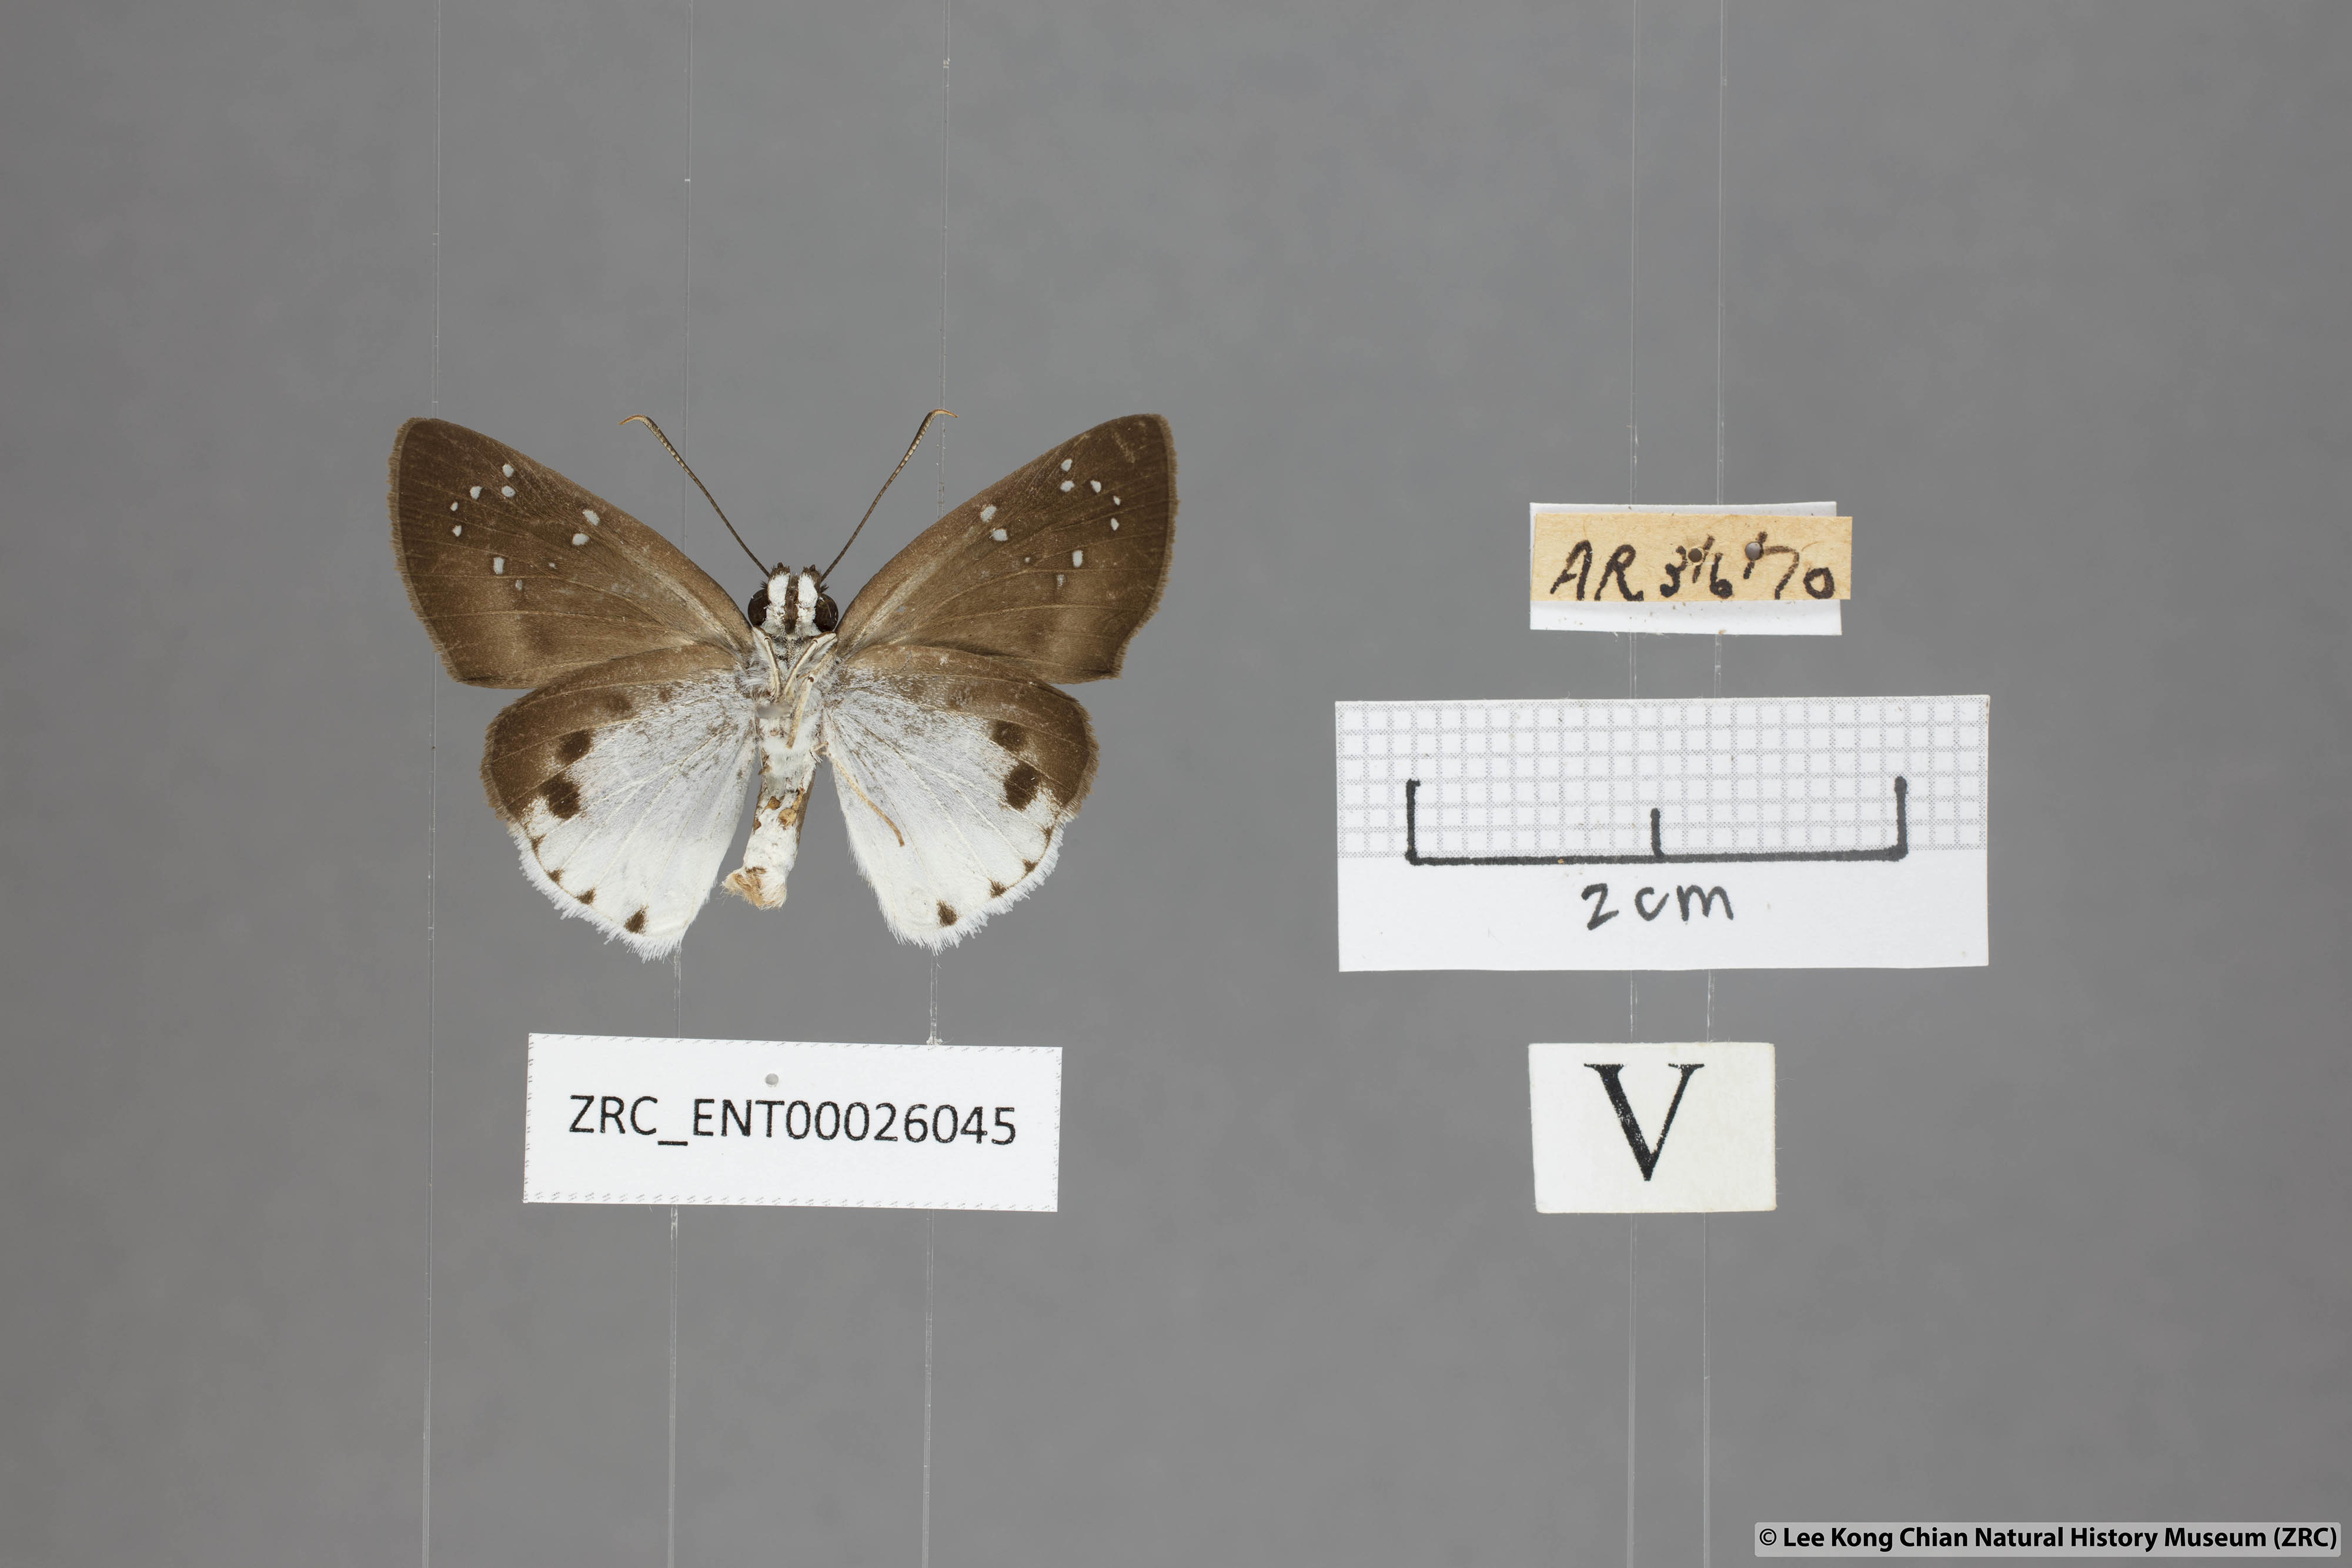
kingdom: Animalia
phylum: Arthropoda
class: Insecta
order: Lepidoptera
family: Hesperiidae
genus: Tagiades
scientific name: Tagiades toba
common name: Different-spotted snow flat
